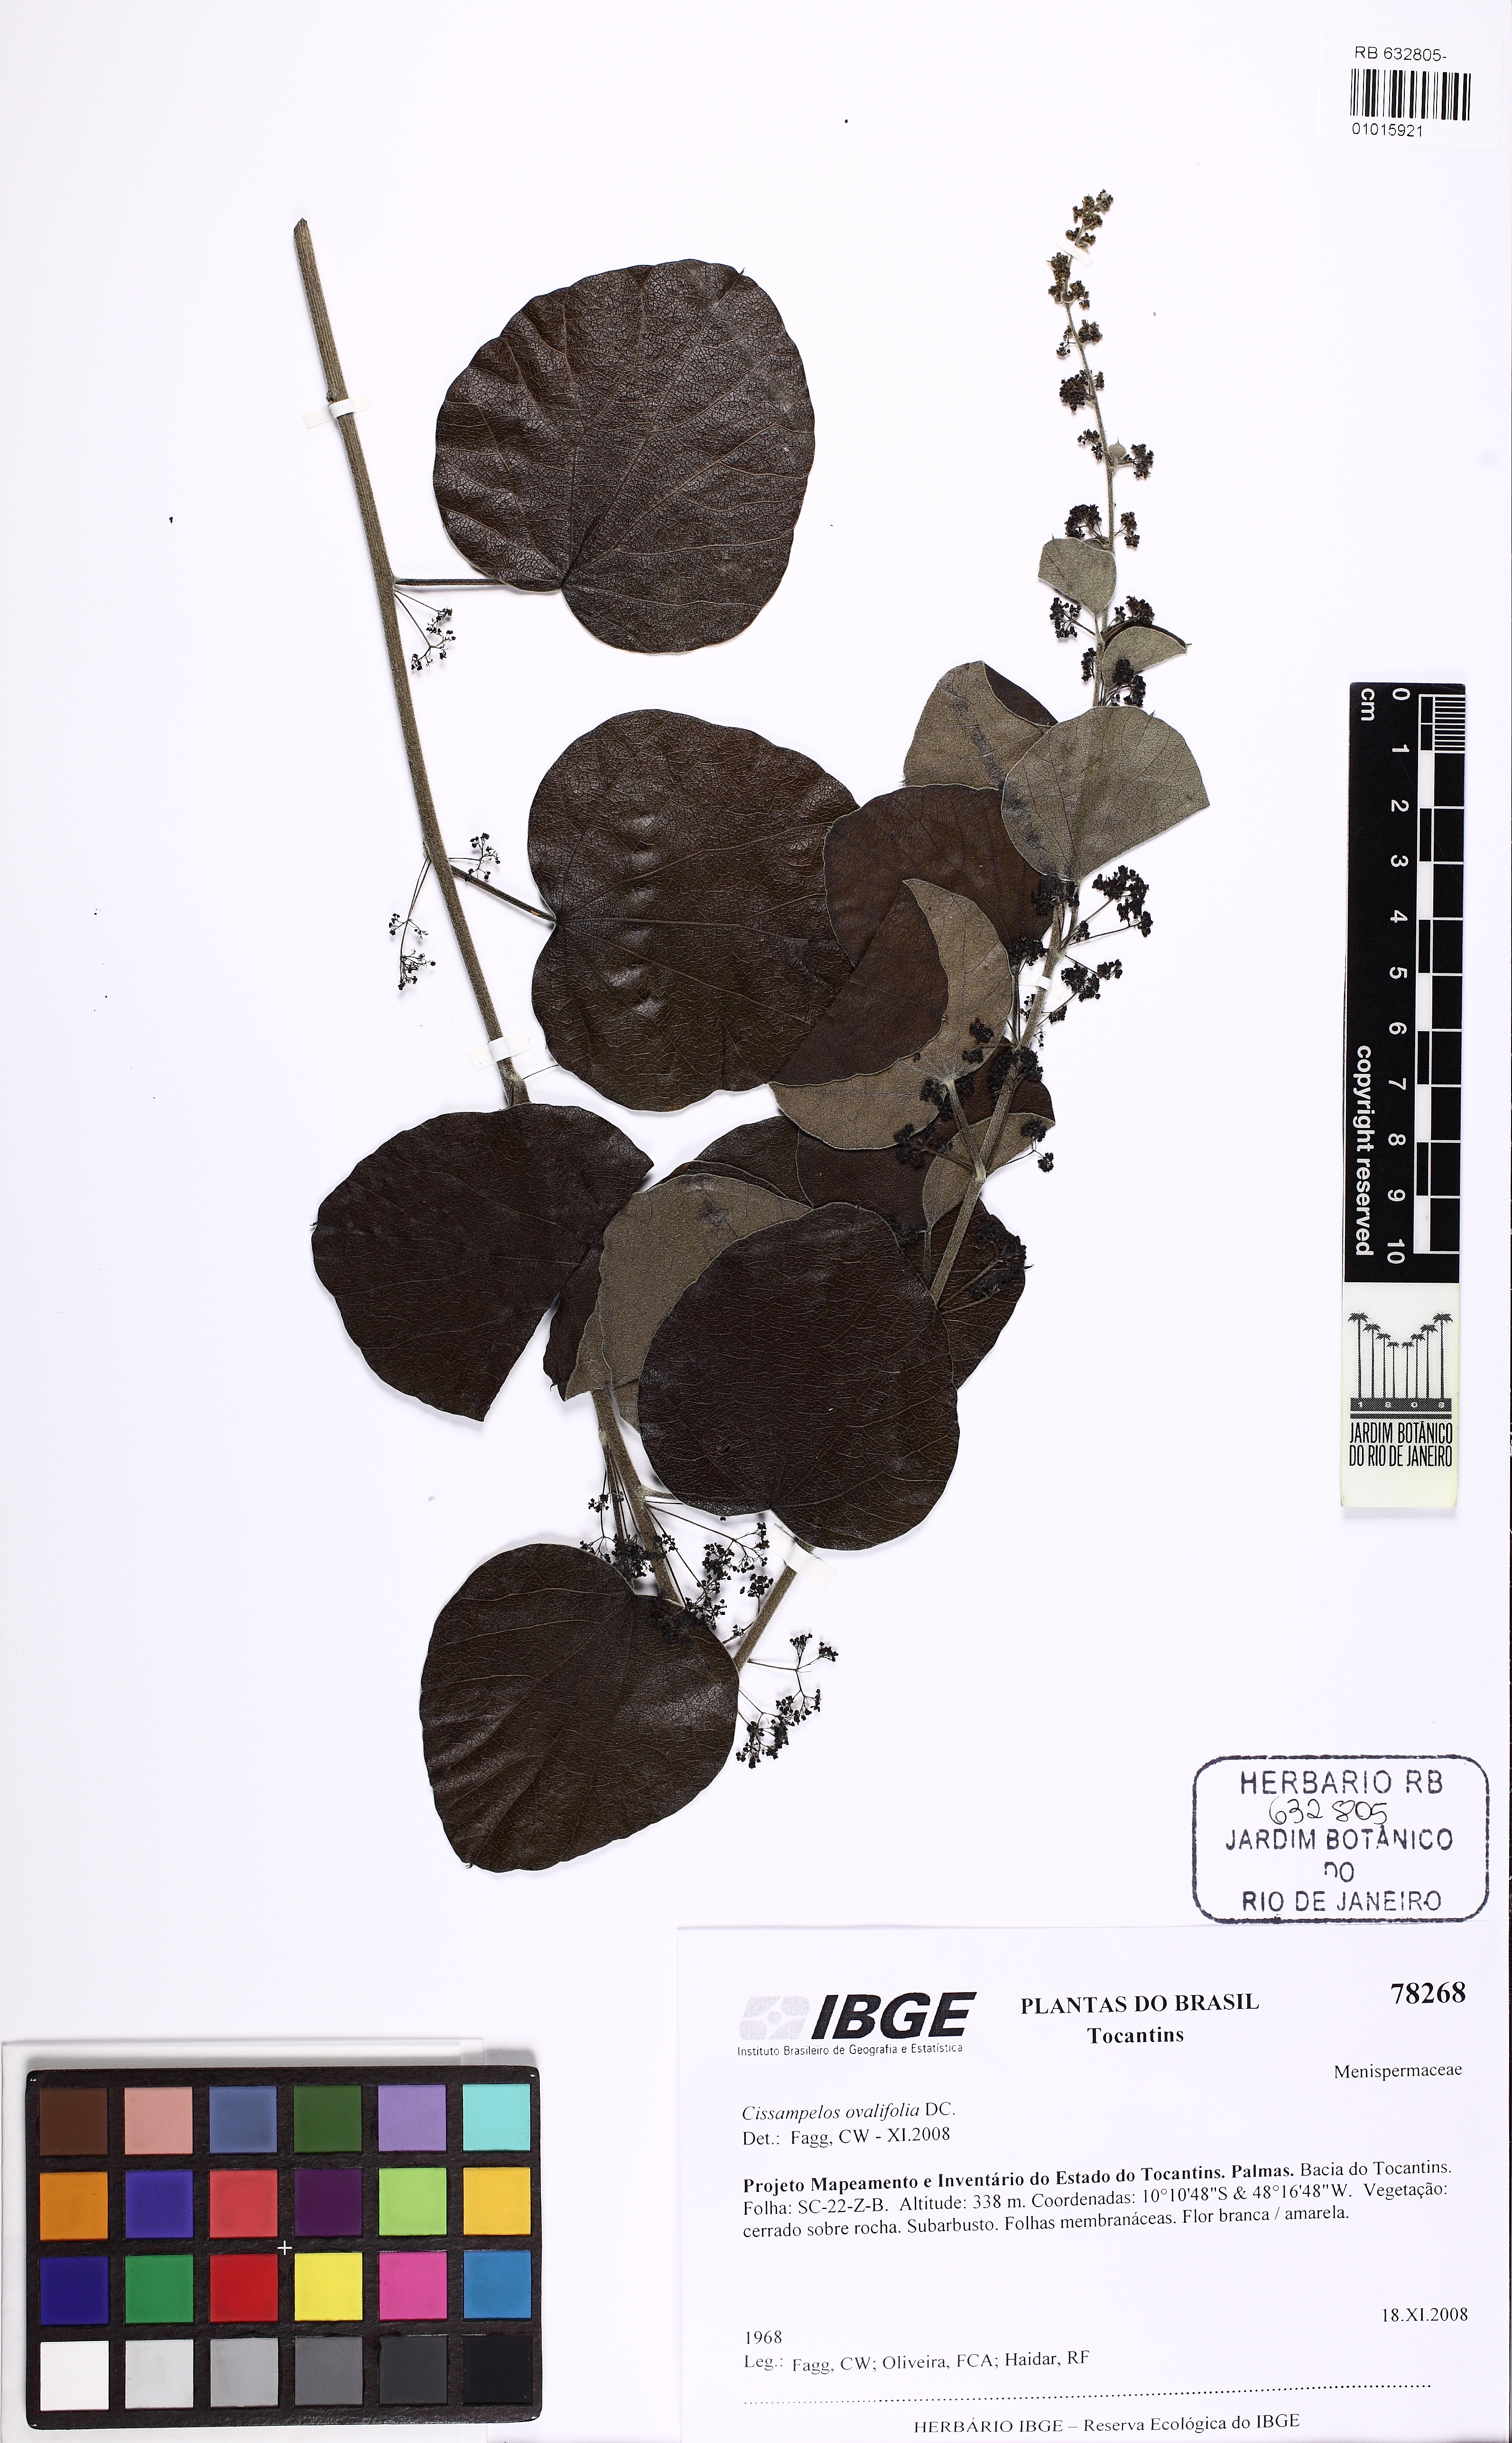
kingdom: Plantae
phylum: Tracheophyta
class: Magnoliopsida
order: Ranunculales
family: Menispermaceae
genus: Cissampelos
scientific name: Cissampelos ovalifolia
